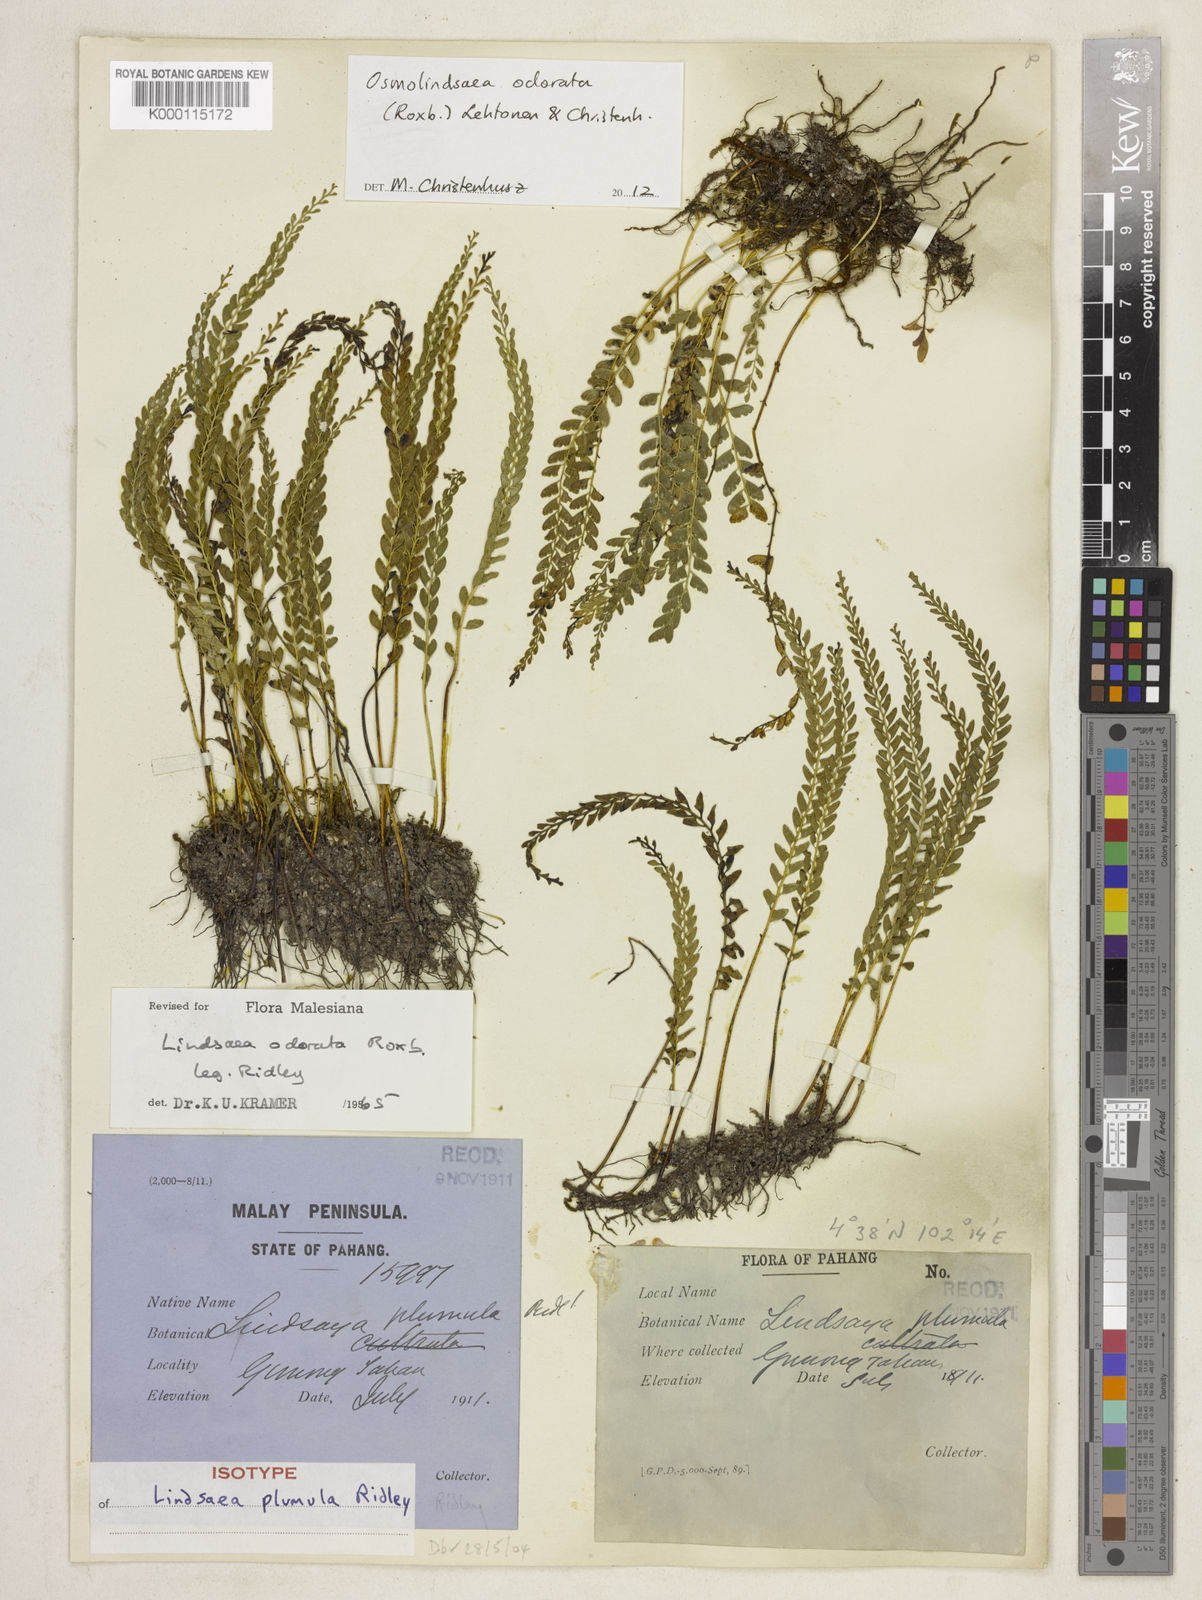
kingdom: Plantae
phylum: Tracheophyta
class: Polypodiopsida
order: Polypodiales
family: Lindsaeaceae
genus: Osmolindsaea
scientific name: Osmolindsaea odorata
